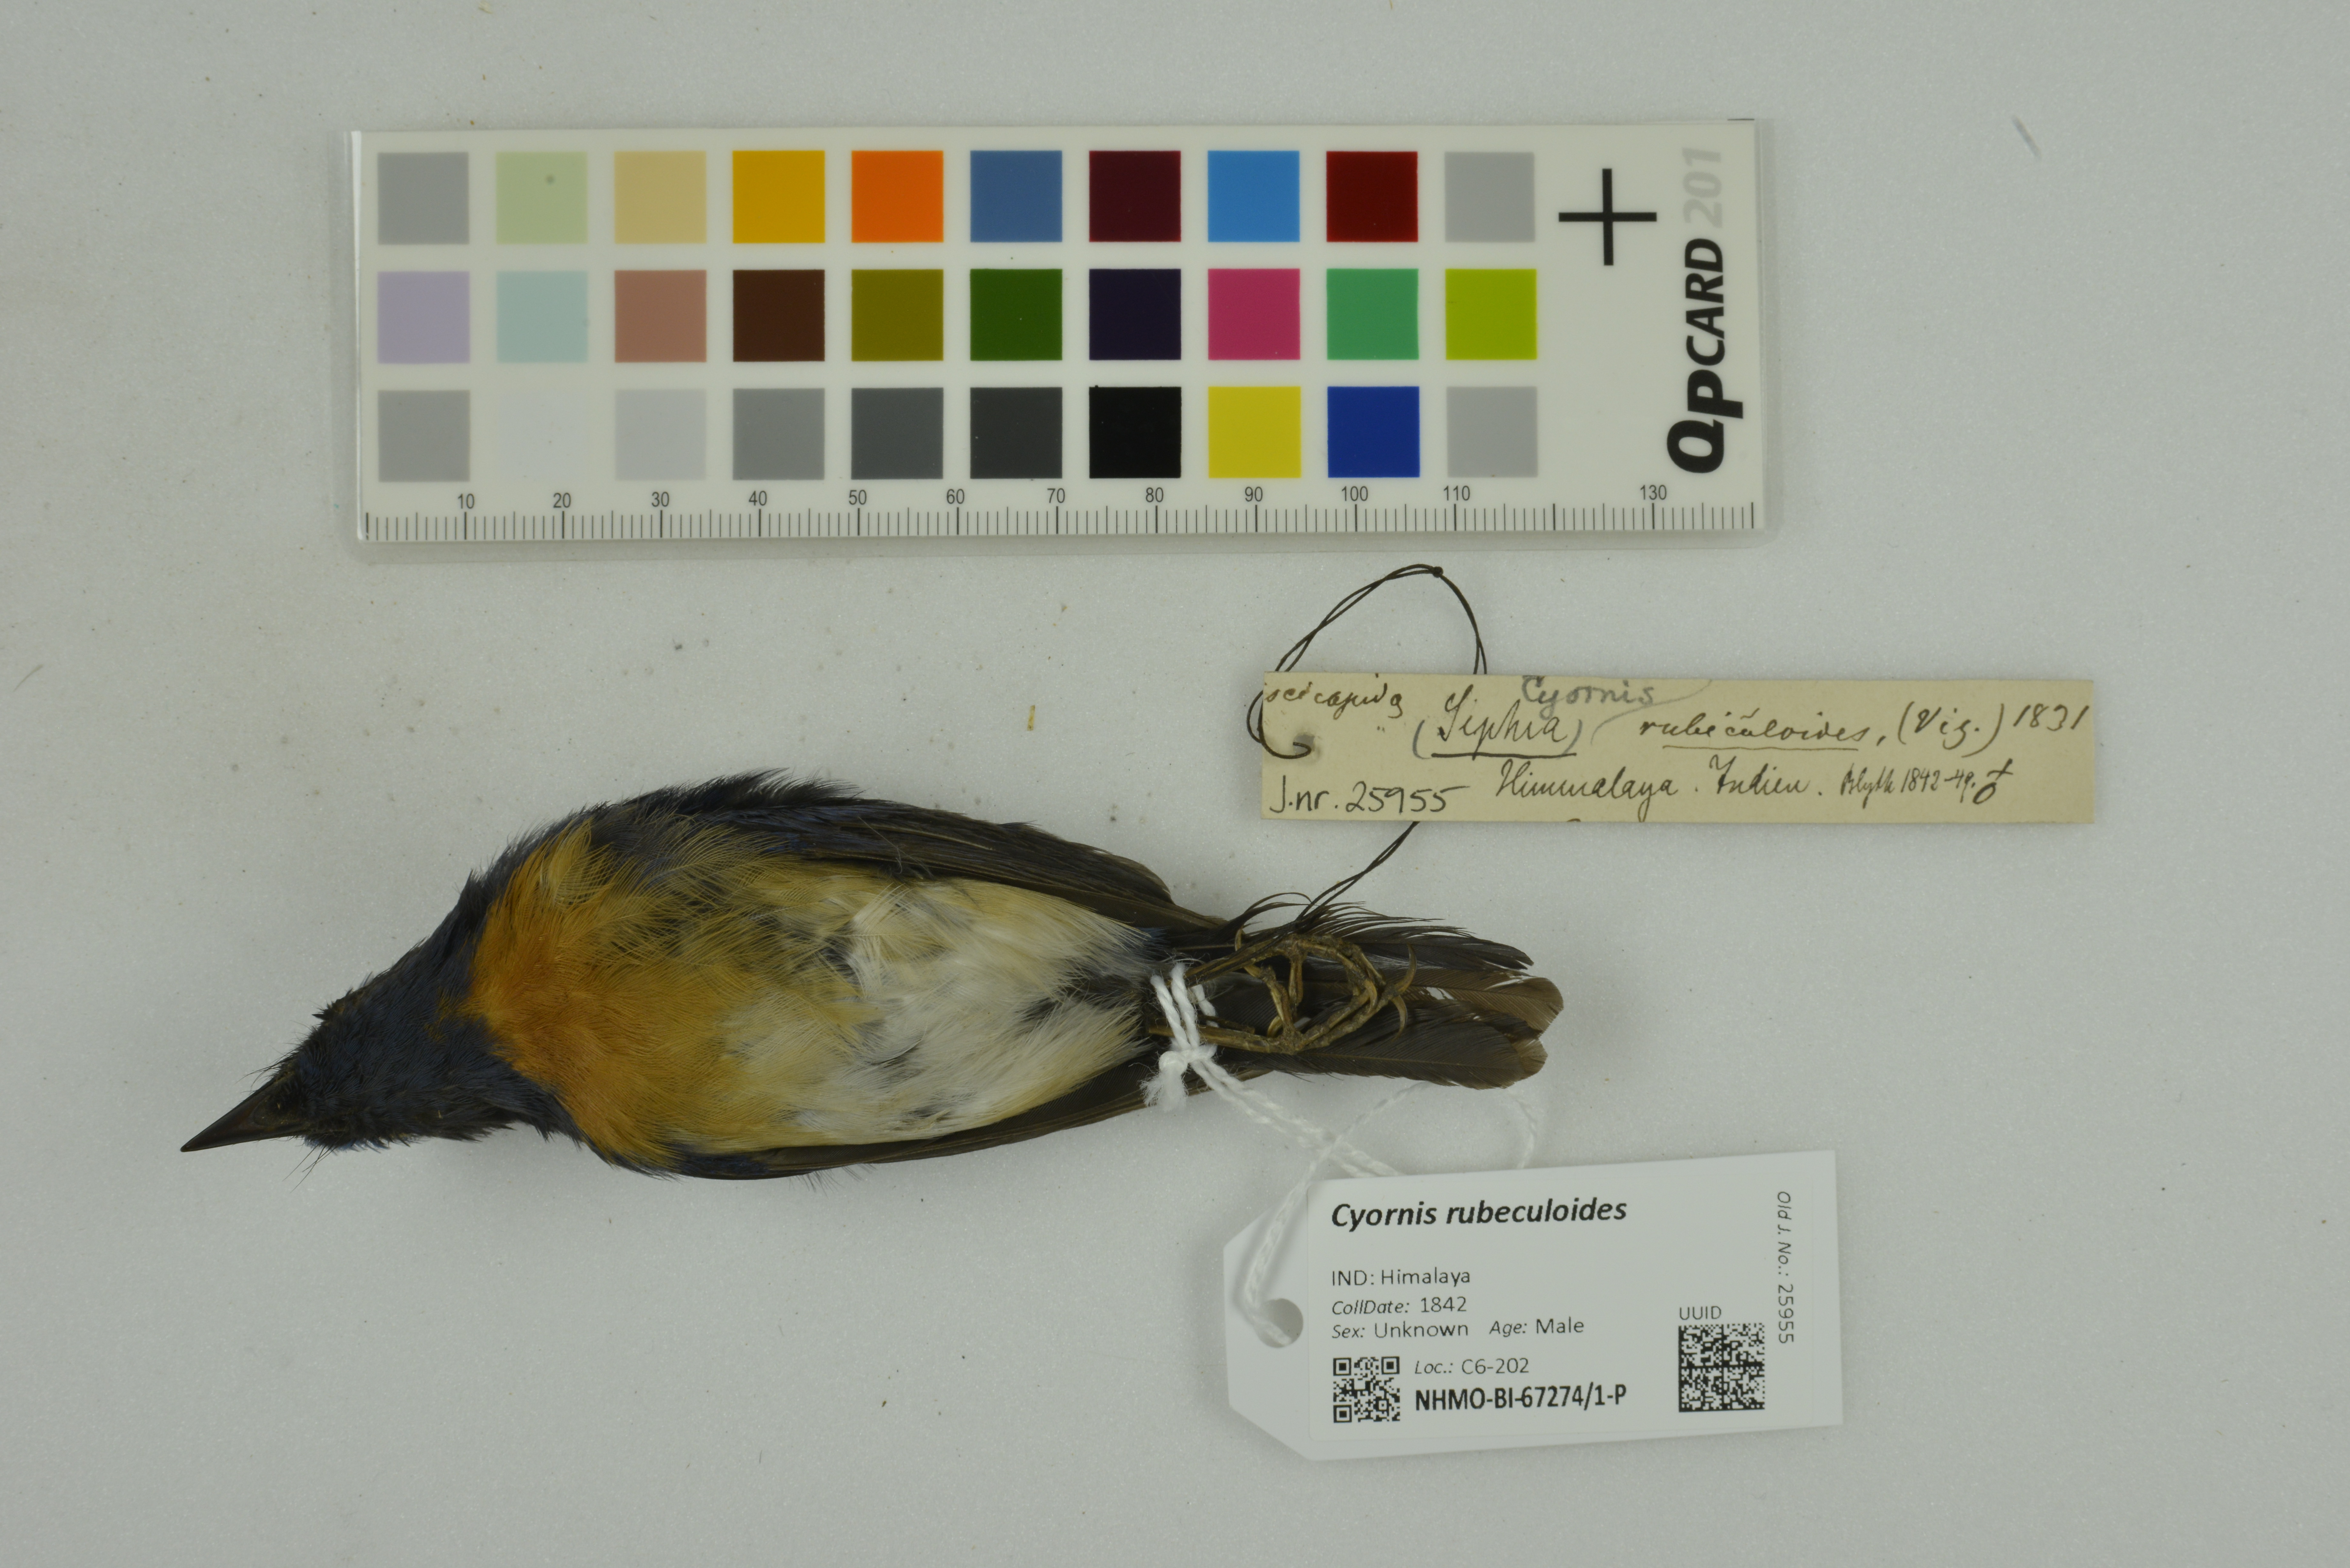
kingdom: Animalia
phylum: Chordata
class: Aves
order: Passeriformes
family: Muscicapidae
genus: Cyornis
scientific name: Cyornis rubeculoides
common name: Blue-throated blue flycatcher
